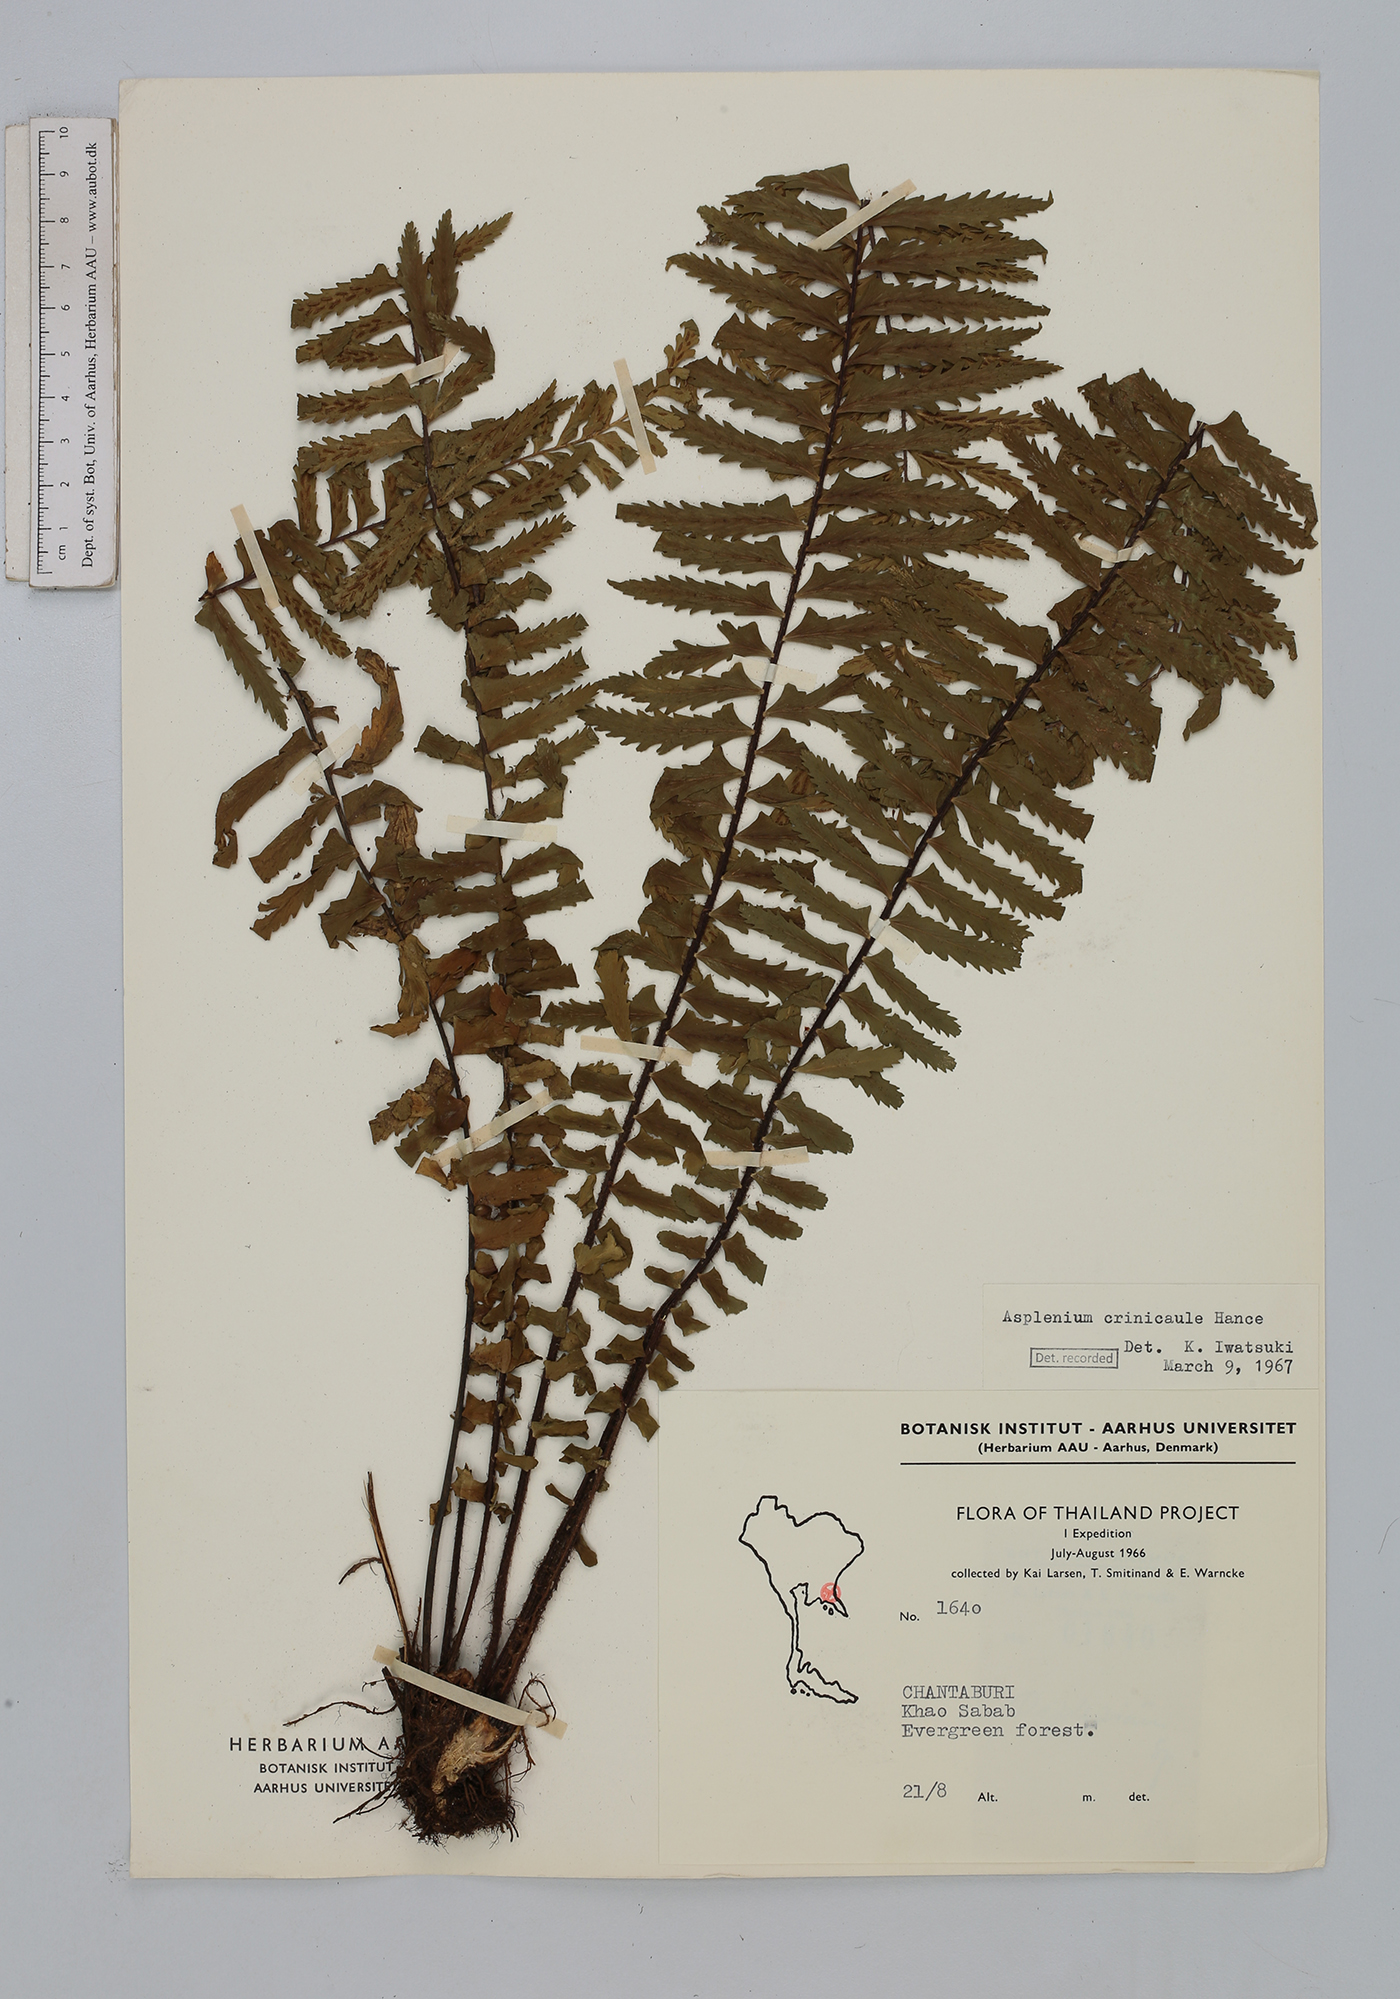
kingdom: Plantae
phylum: Tracheophyta
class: Polypodiopsida
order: Polypodiales
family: Aspleniaceae
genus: Asplenium
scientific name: Asplenium crinicaule
